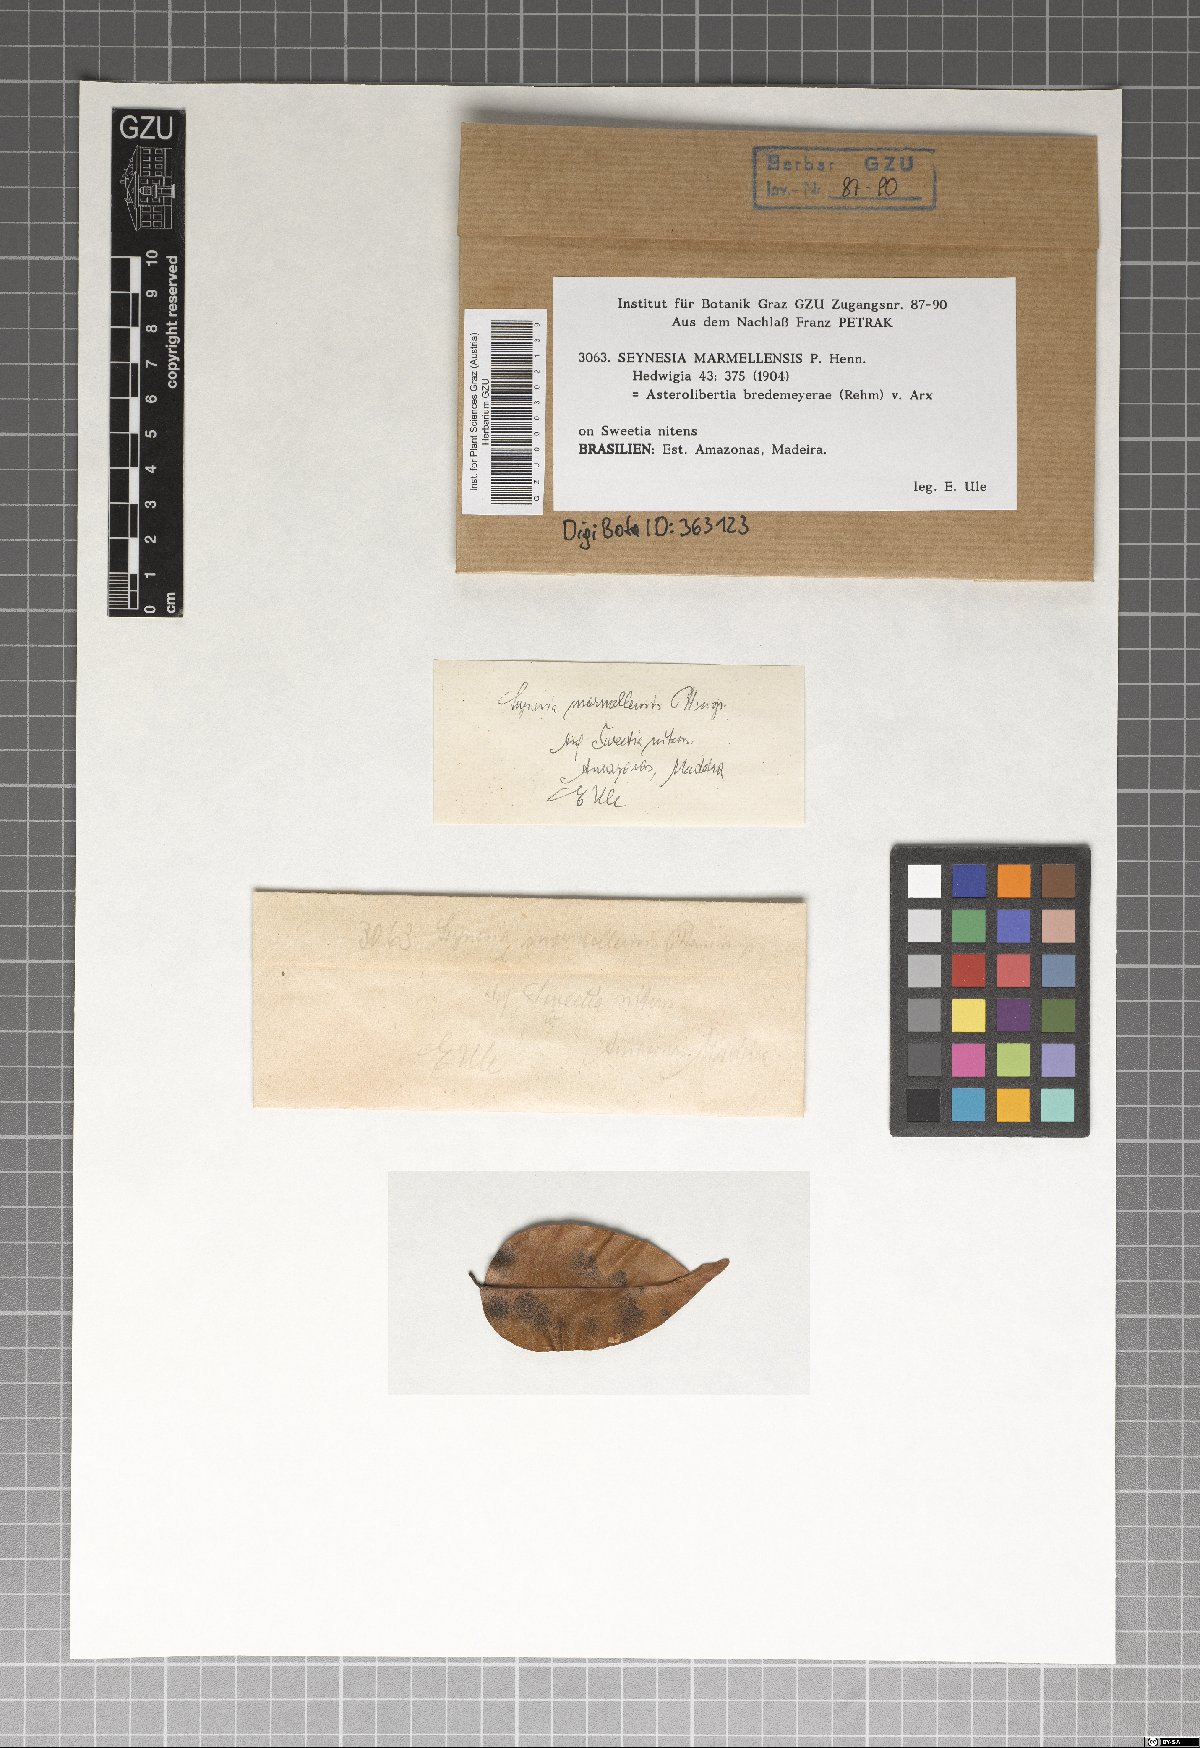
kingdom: Fungi
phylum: Ascomycota
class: Dothideomycetes
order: Asterinales
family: Asterinaceae
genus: Asterina
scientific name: Asterina marmellensis
